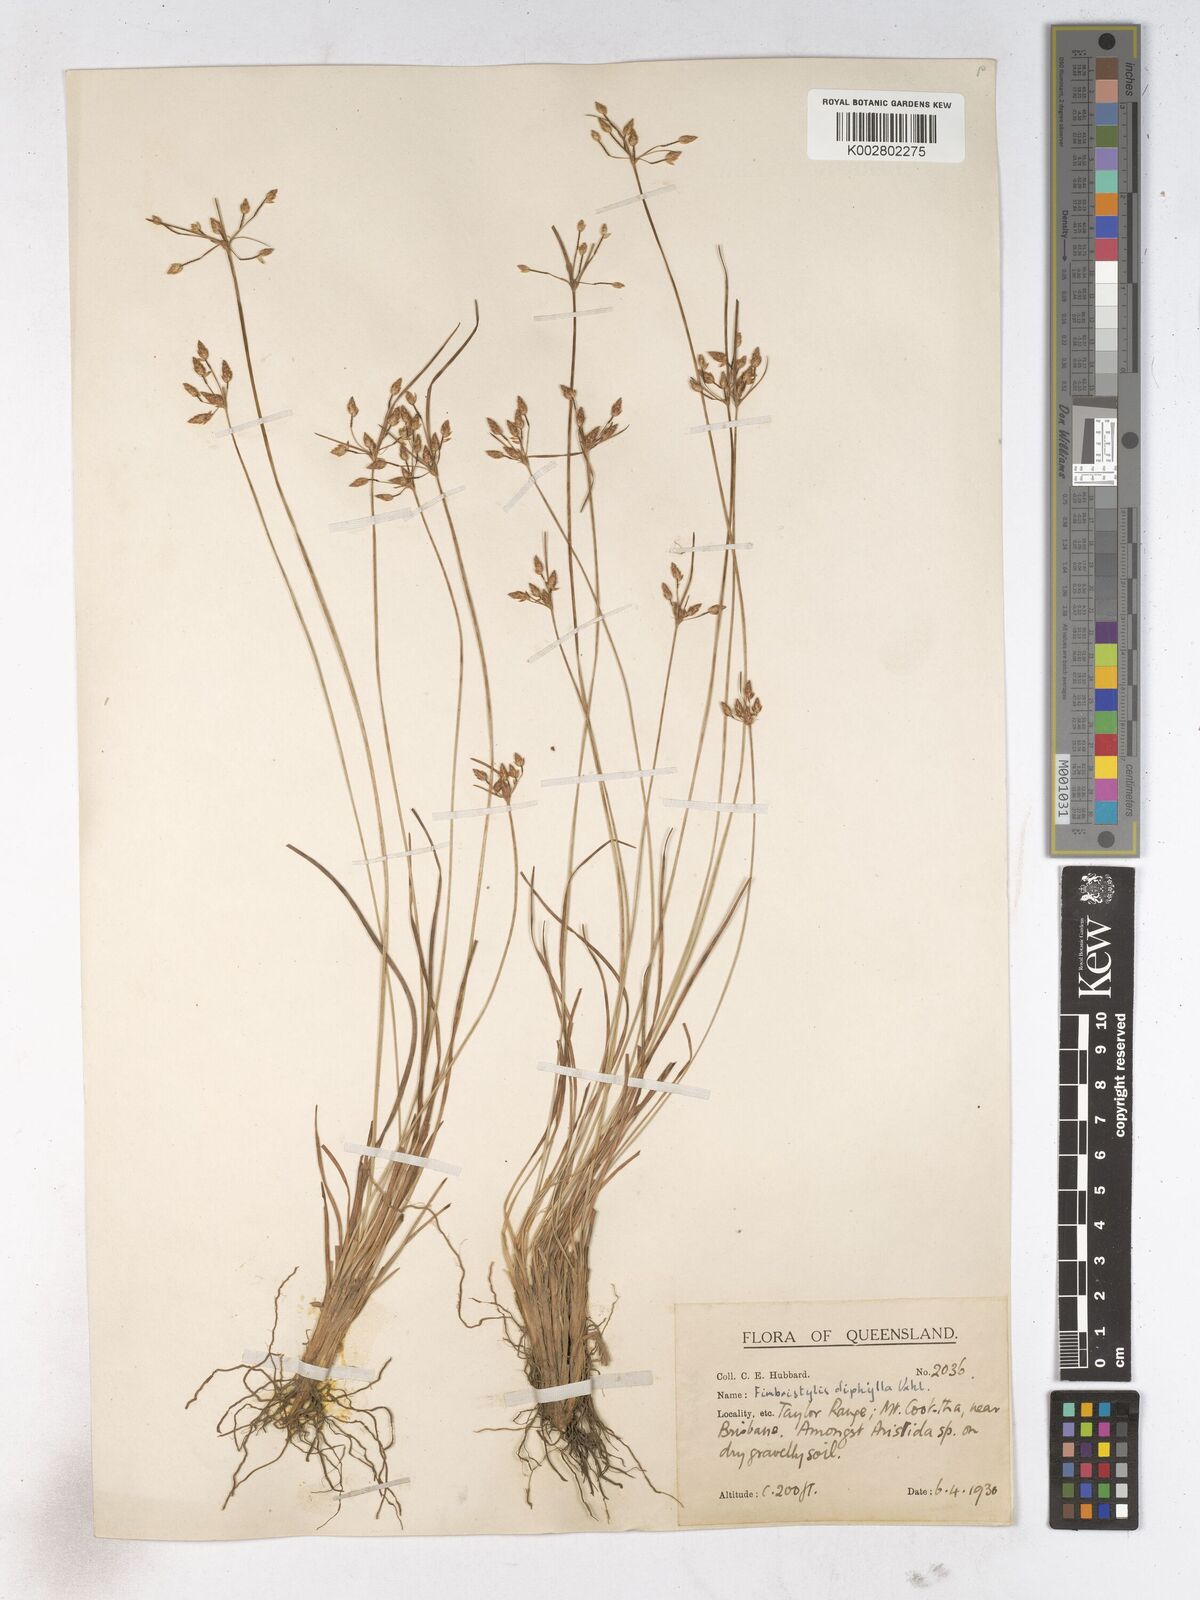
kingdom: Plantae
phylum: Tracheophyta
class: Liliopsida
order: Poales
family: Cyperaceae
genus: Fimbristylis
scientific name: Fimbristylis dichotoma
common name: Forked fimbry
